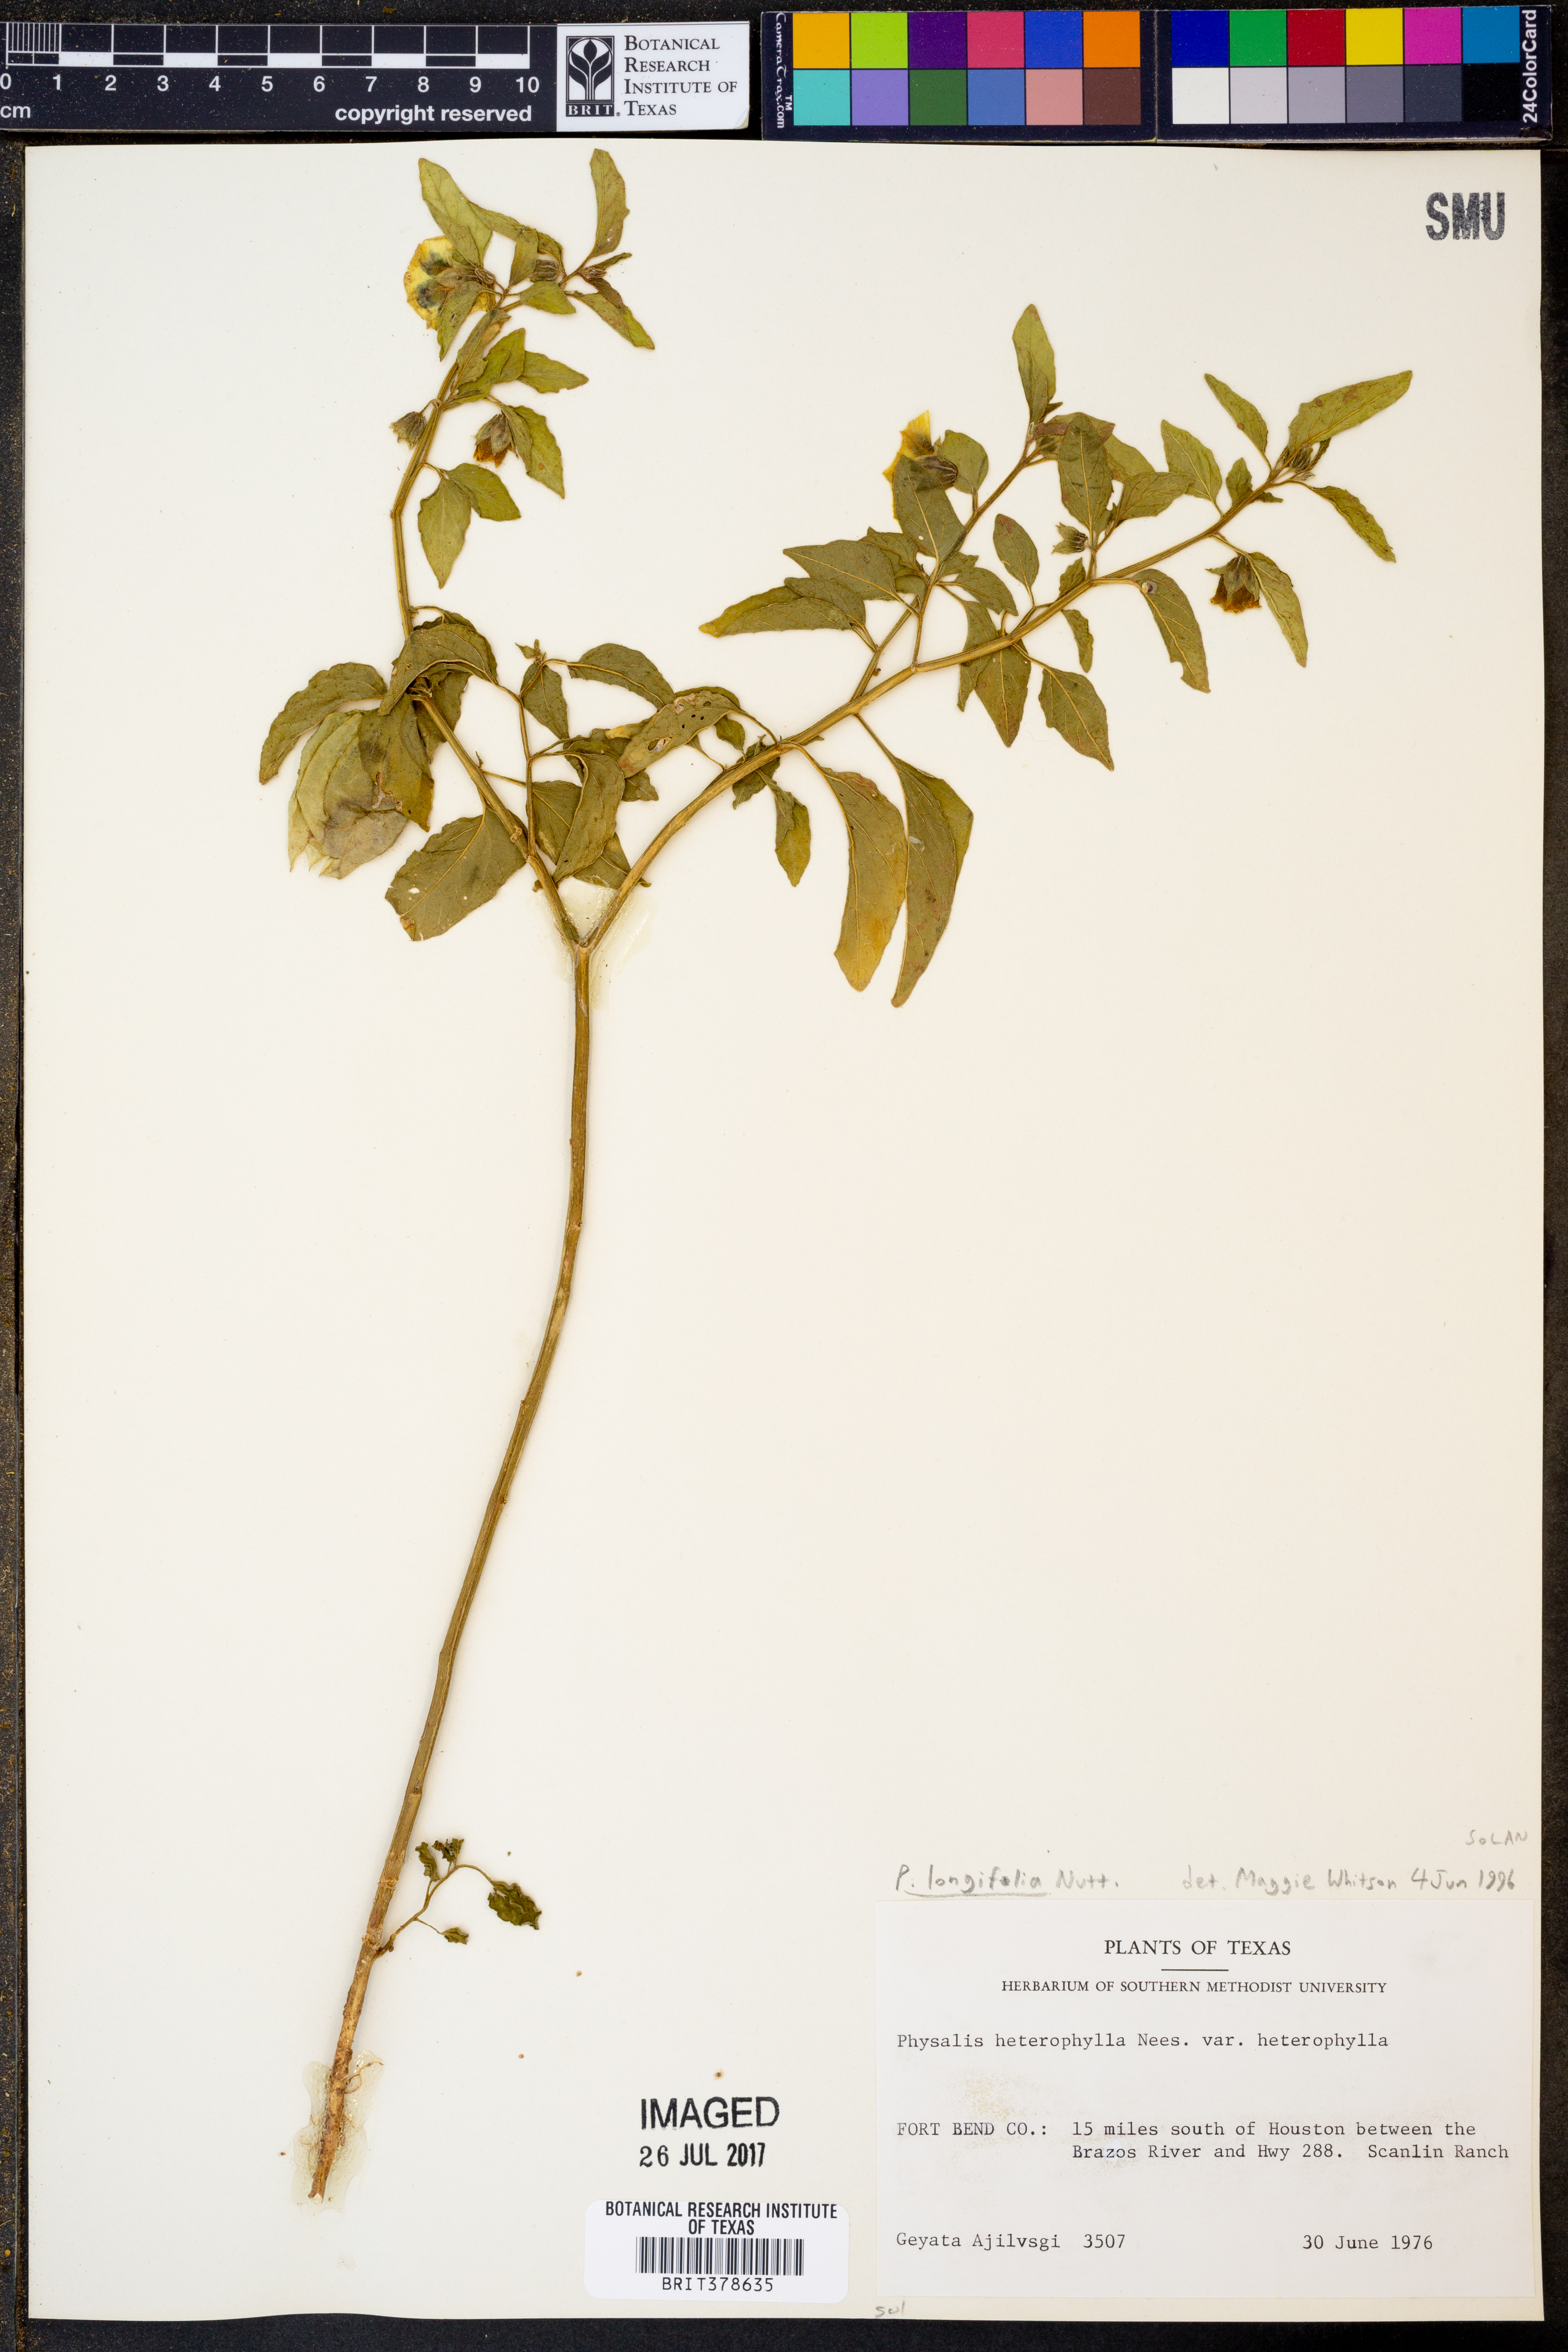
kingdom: Plantae
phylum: Tracheophyta
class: Magnoliopsida
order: Solanales
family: Solanaceae
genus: Physalis
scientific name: Physalis longifolia
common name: Common ground-cherry
